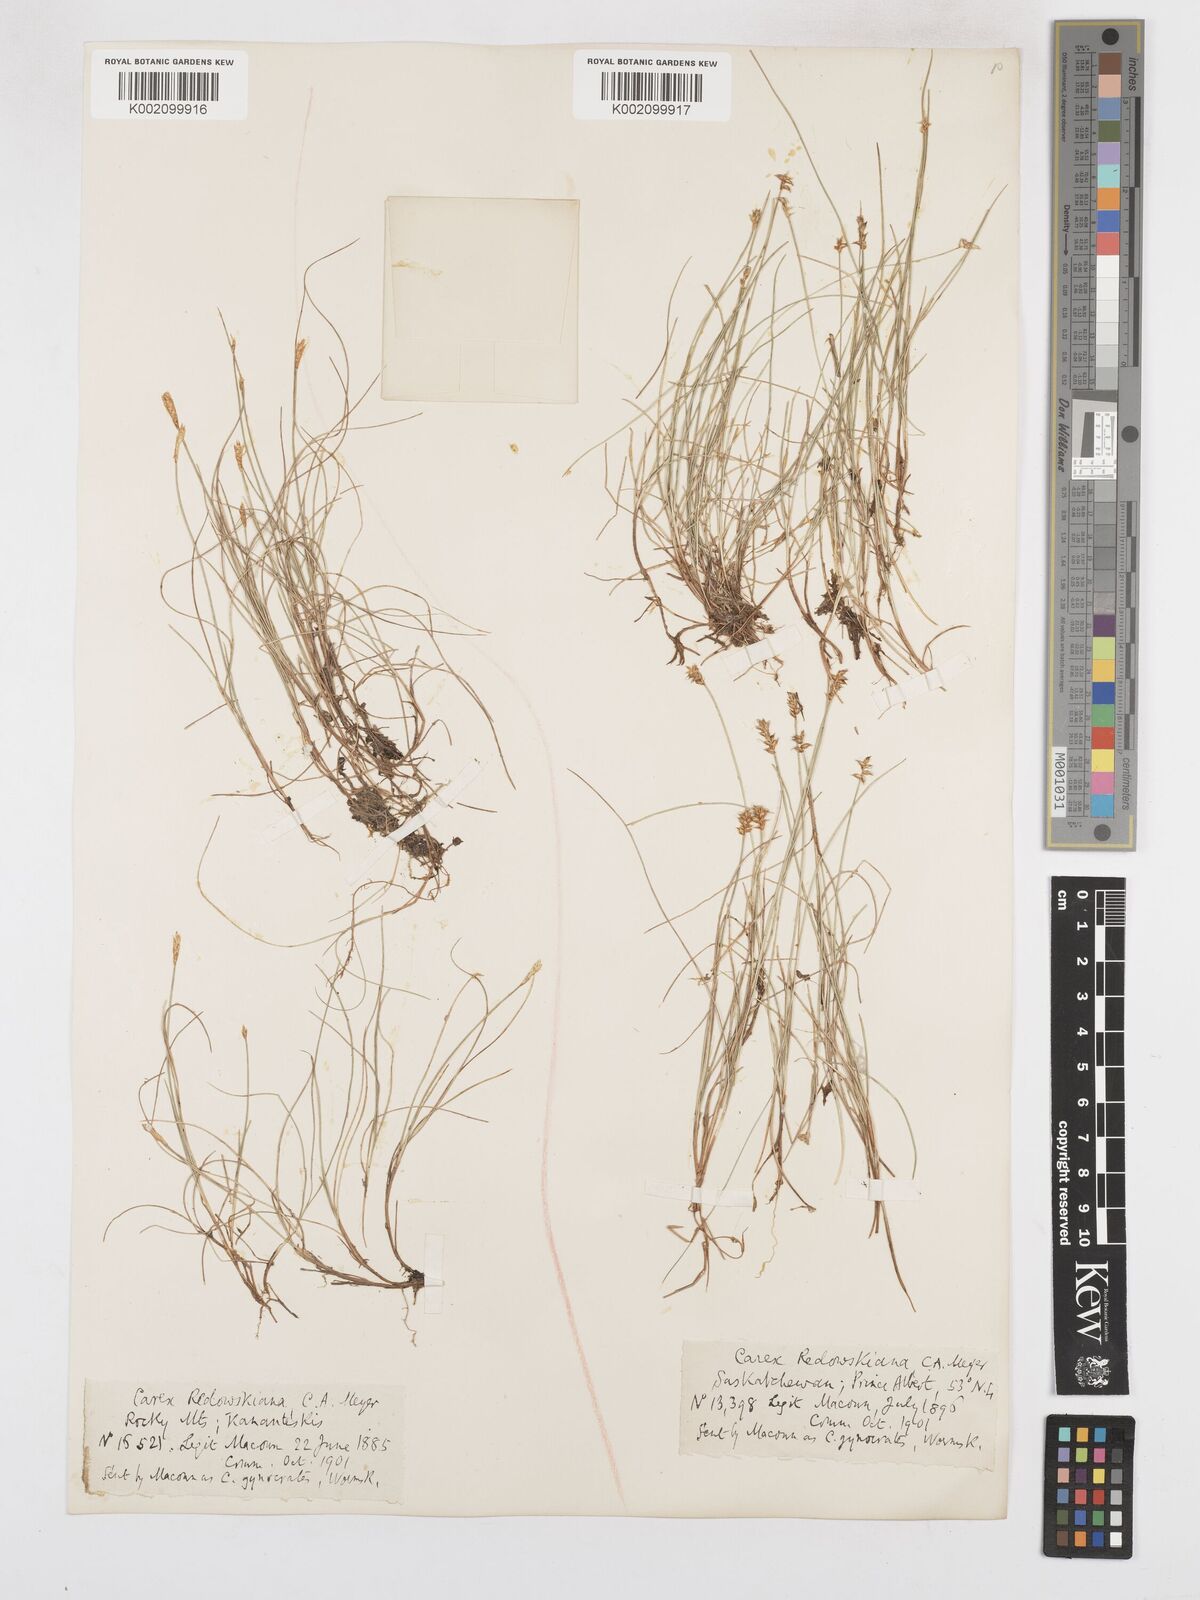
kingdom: Plantae
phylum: Tracheophyta
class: Liliopsida
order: Poales
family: Cyperaceae
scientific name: Cyperaceae
